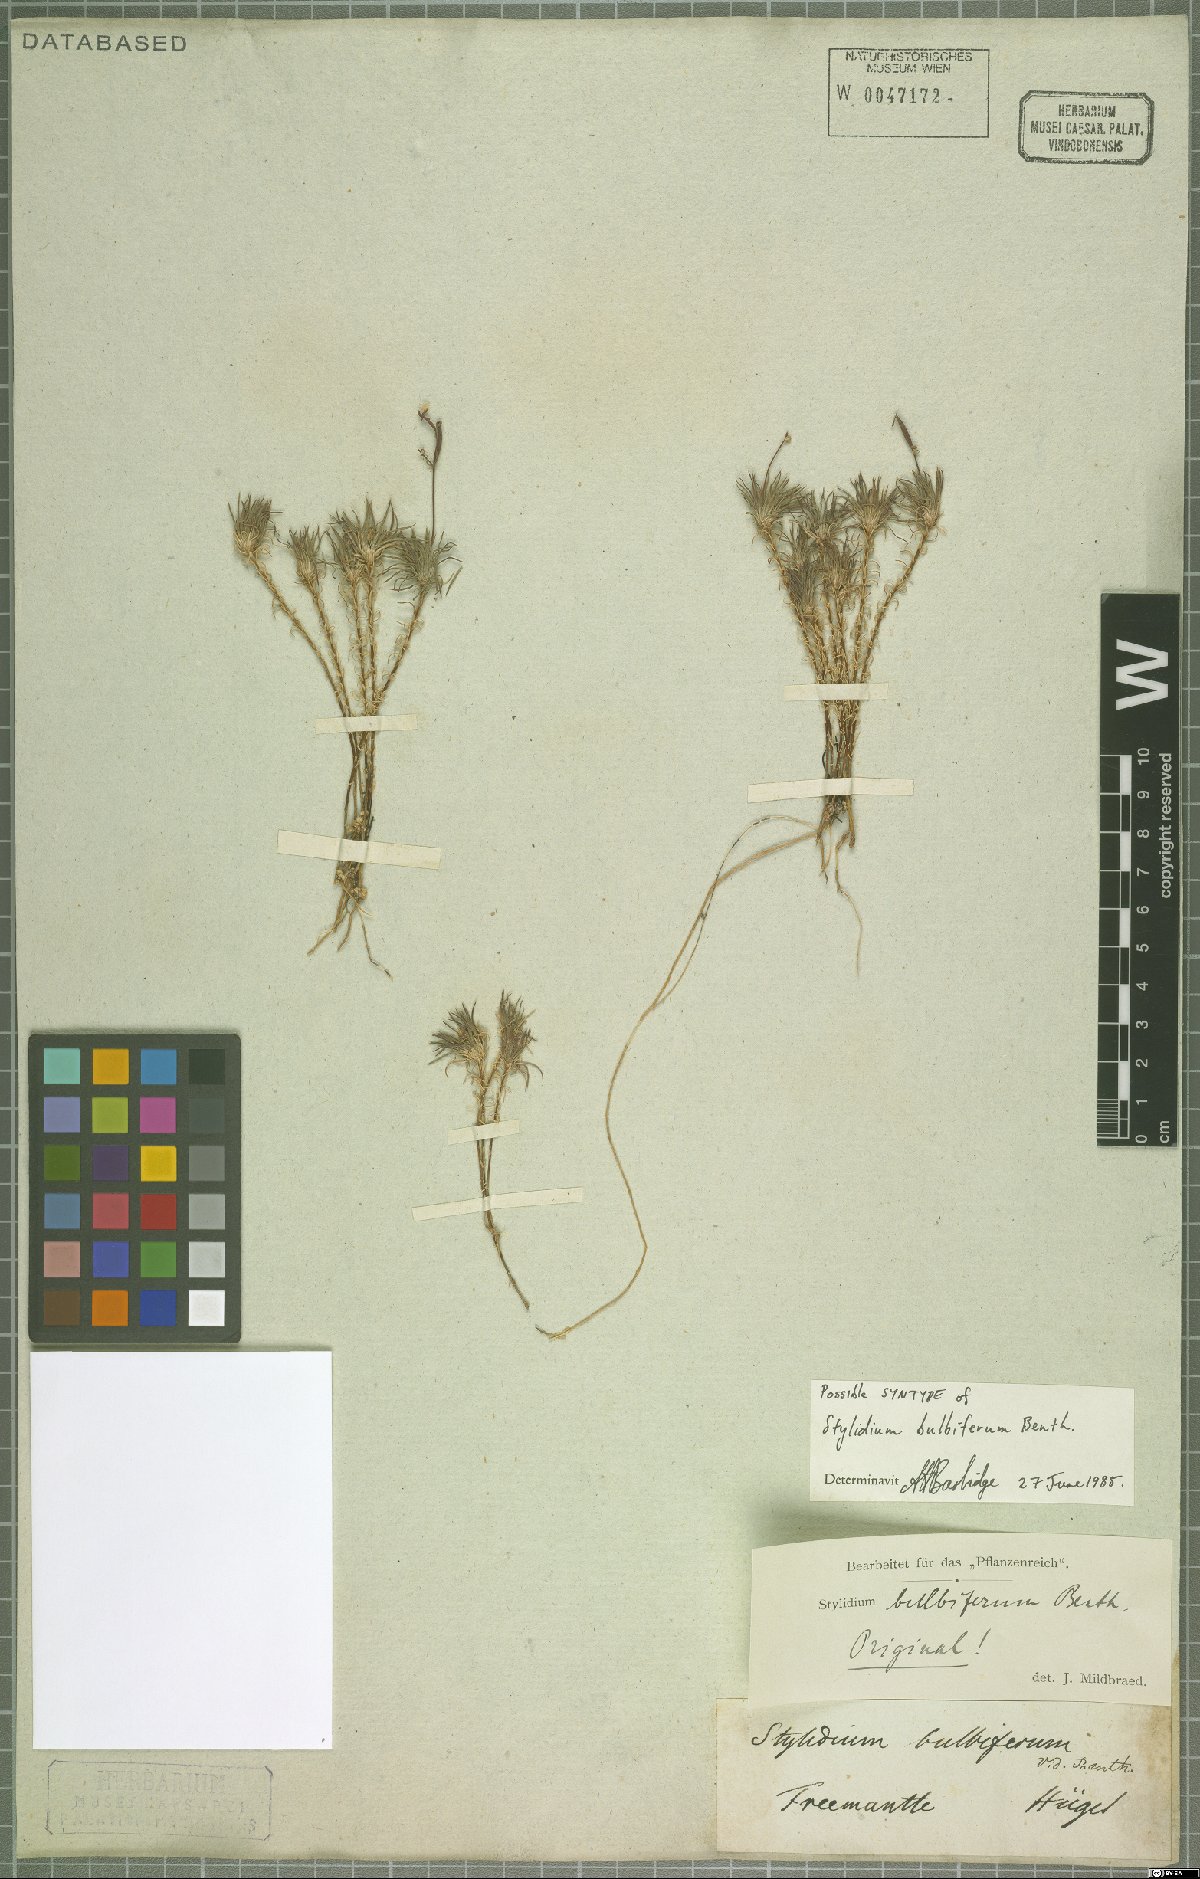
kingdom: Plantae
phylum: Tracheophyta
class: Magnoliopsida
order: Asterales
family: Stylidiaceae
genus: Stylidium
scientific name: Stylidium bulbiferum
